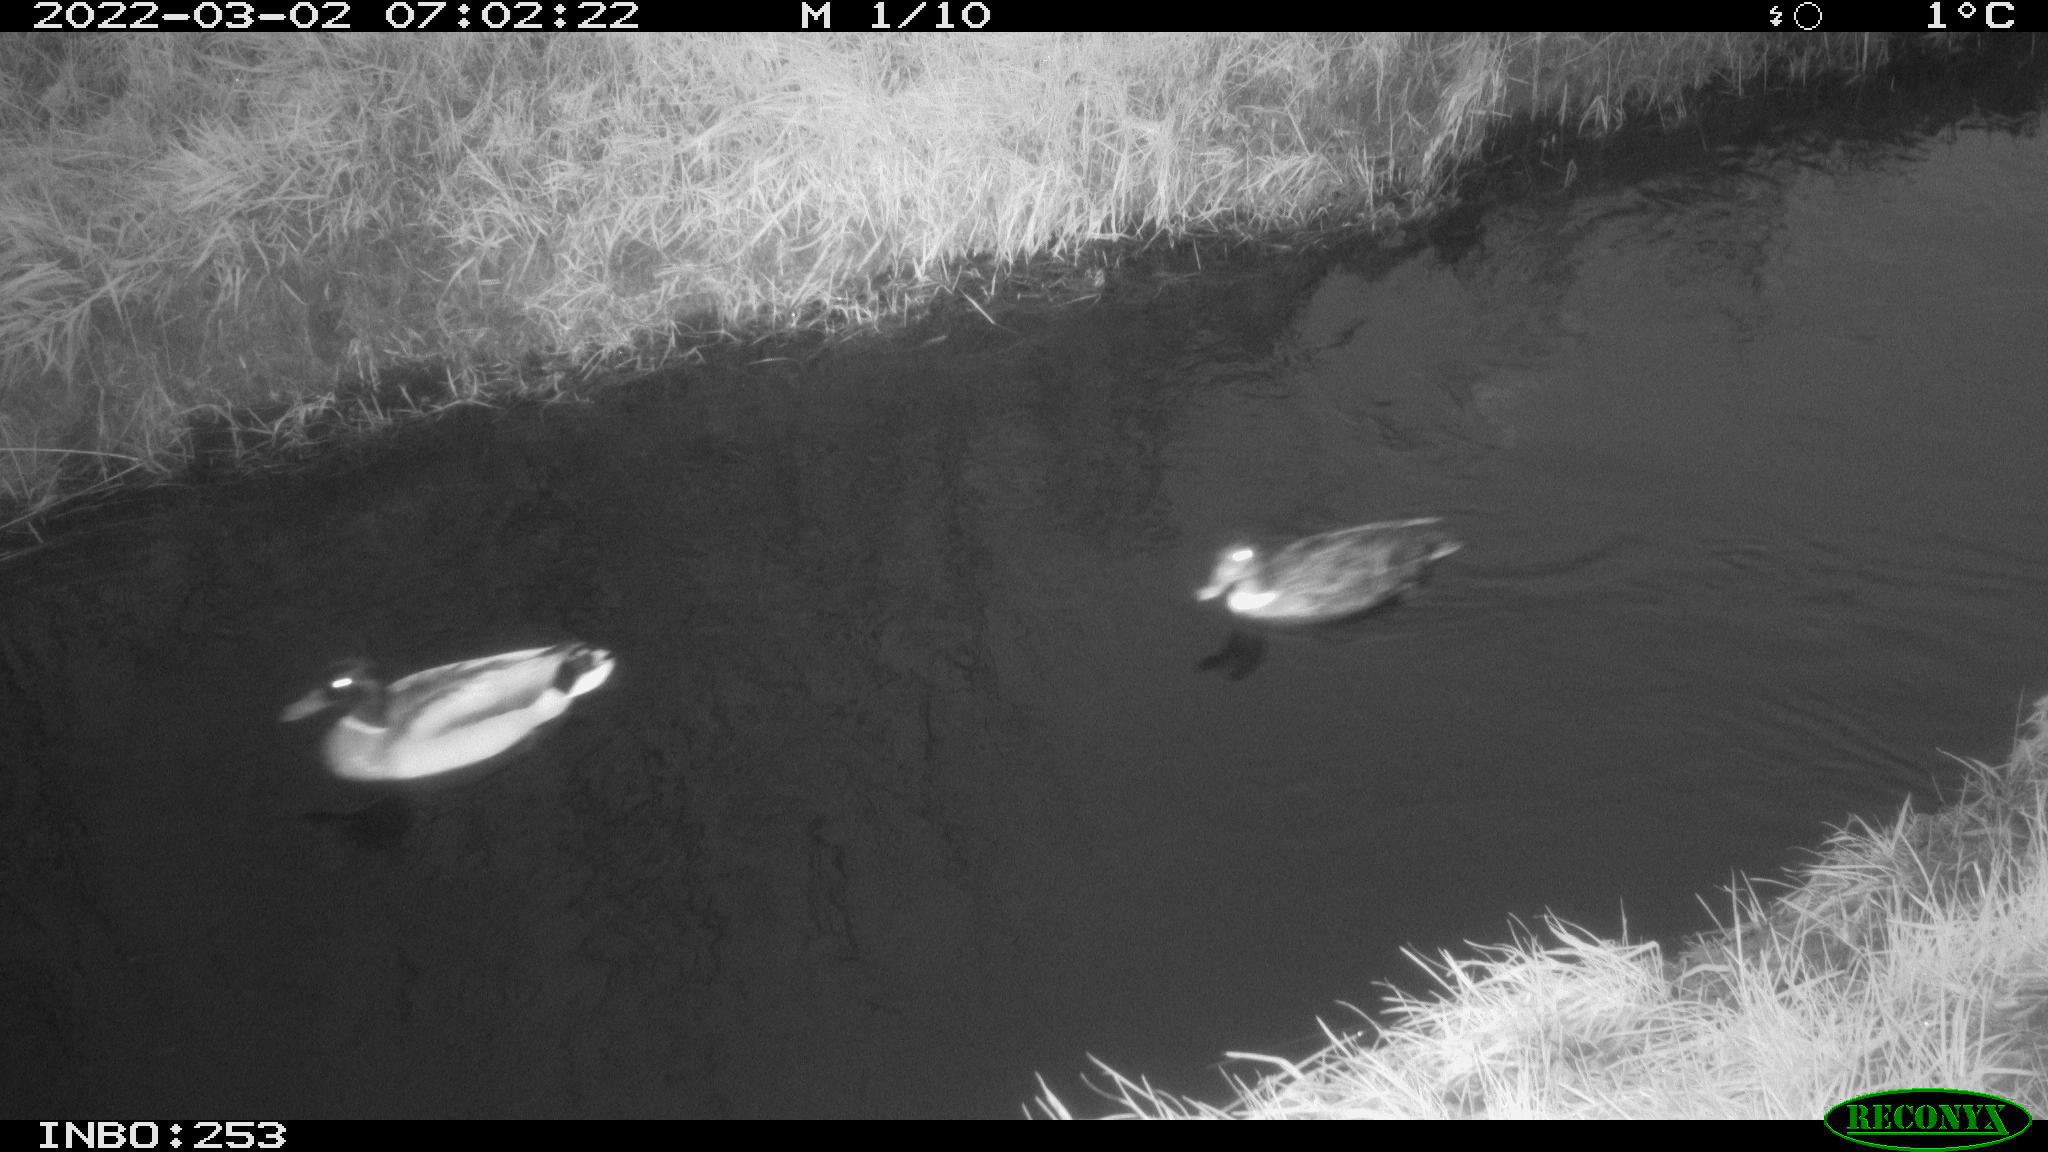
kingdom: Animalia
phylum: Chordata
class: Aves
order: Anseriformes
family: Anatidae
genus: Anas
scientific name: Anas platyrhynchos
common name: Mallard
